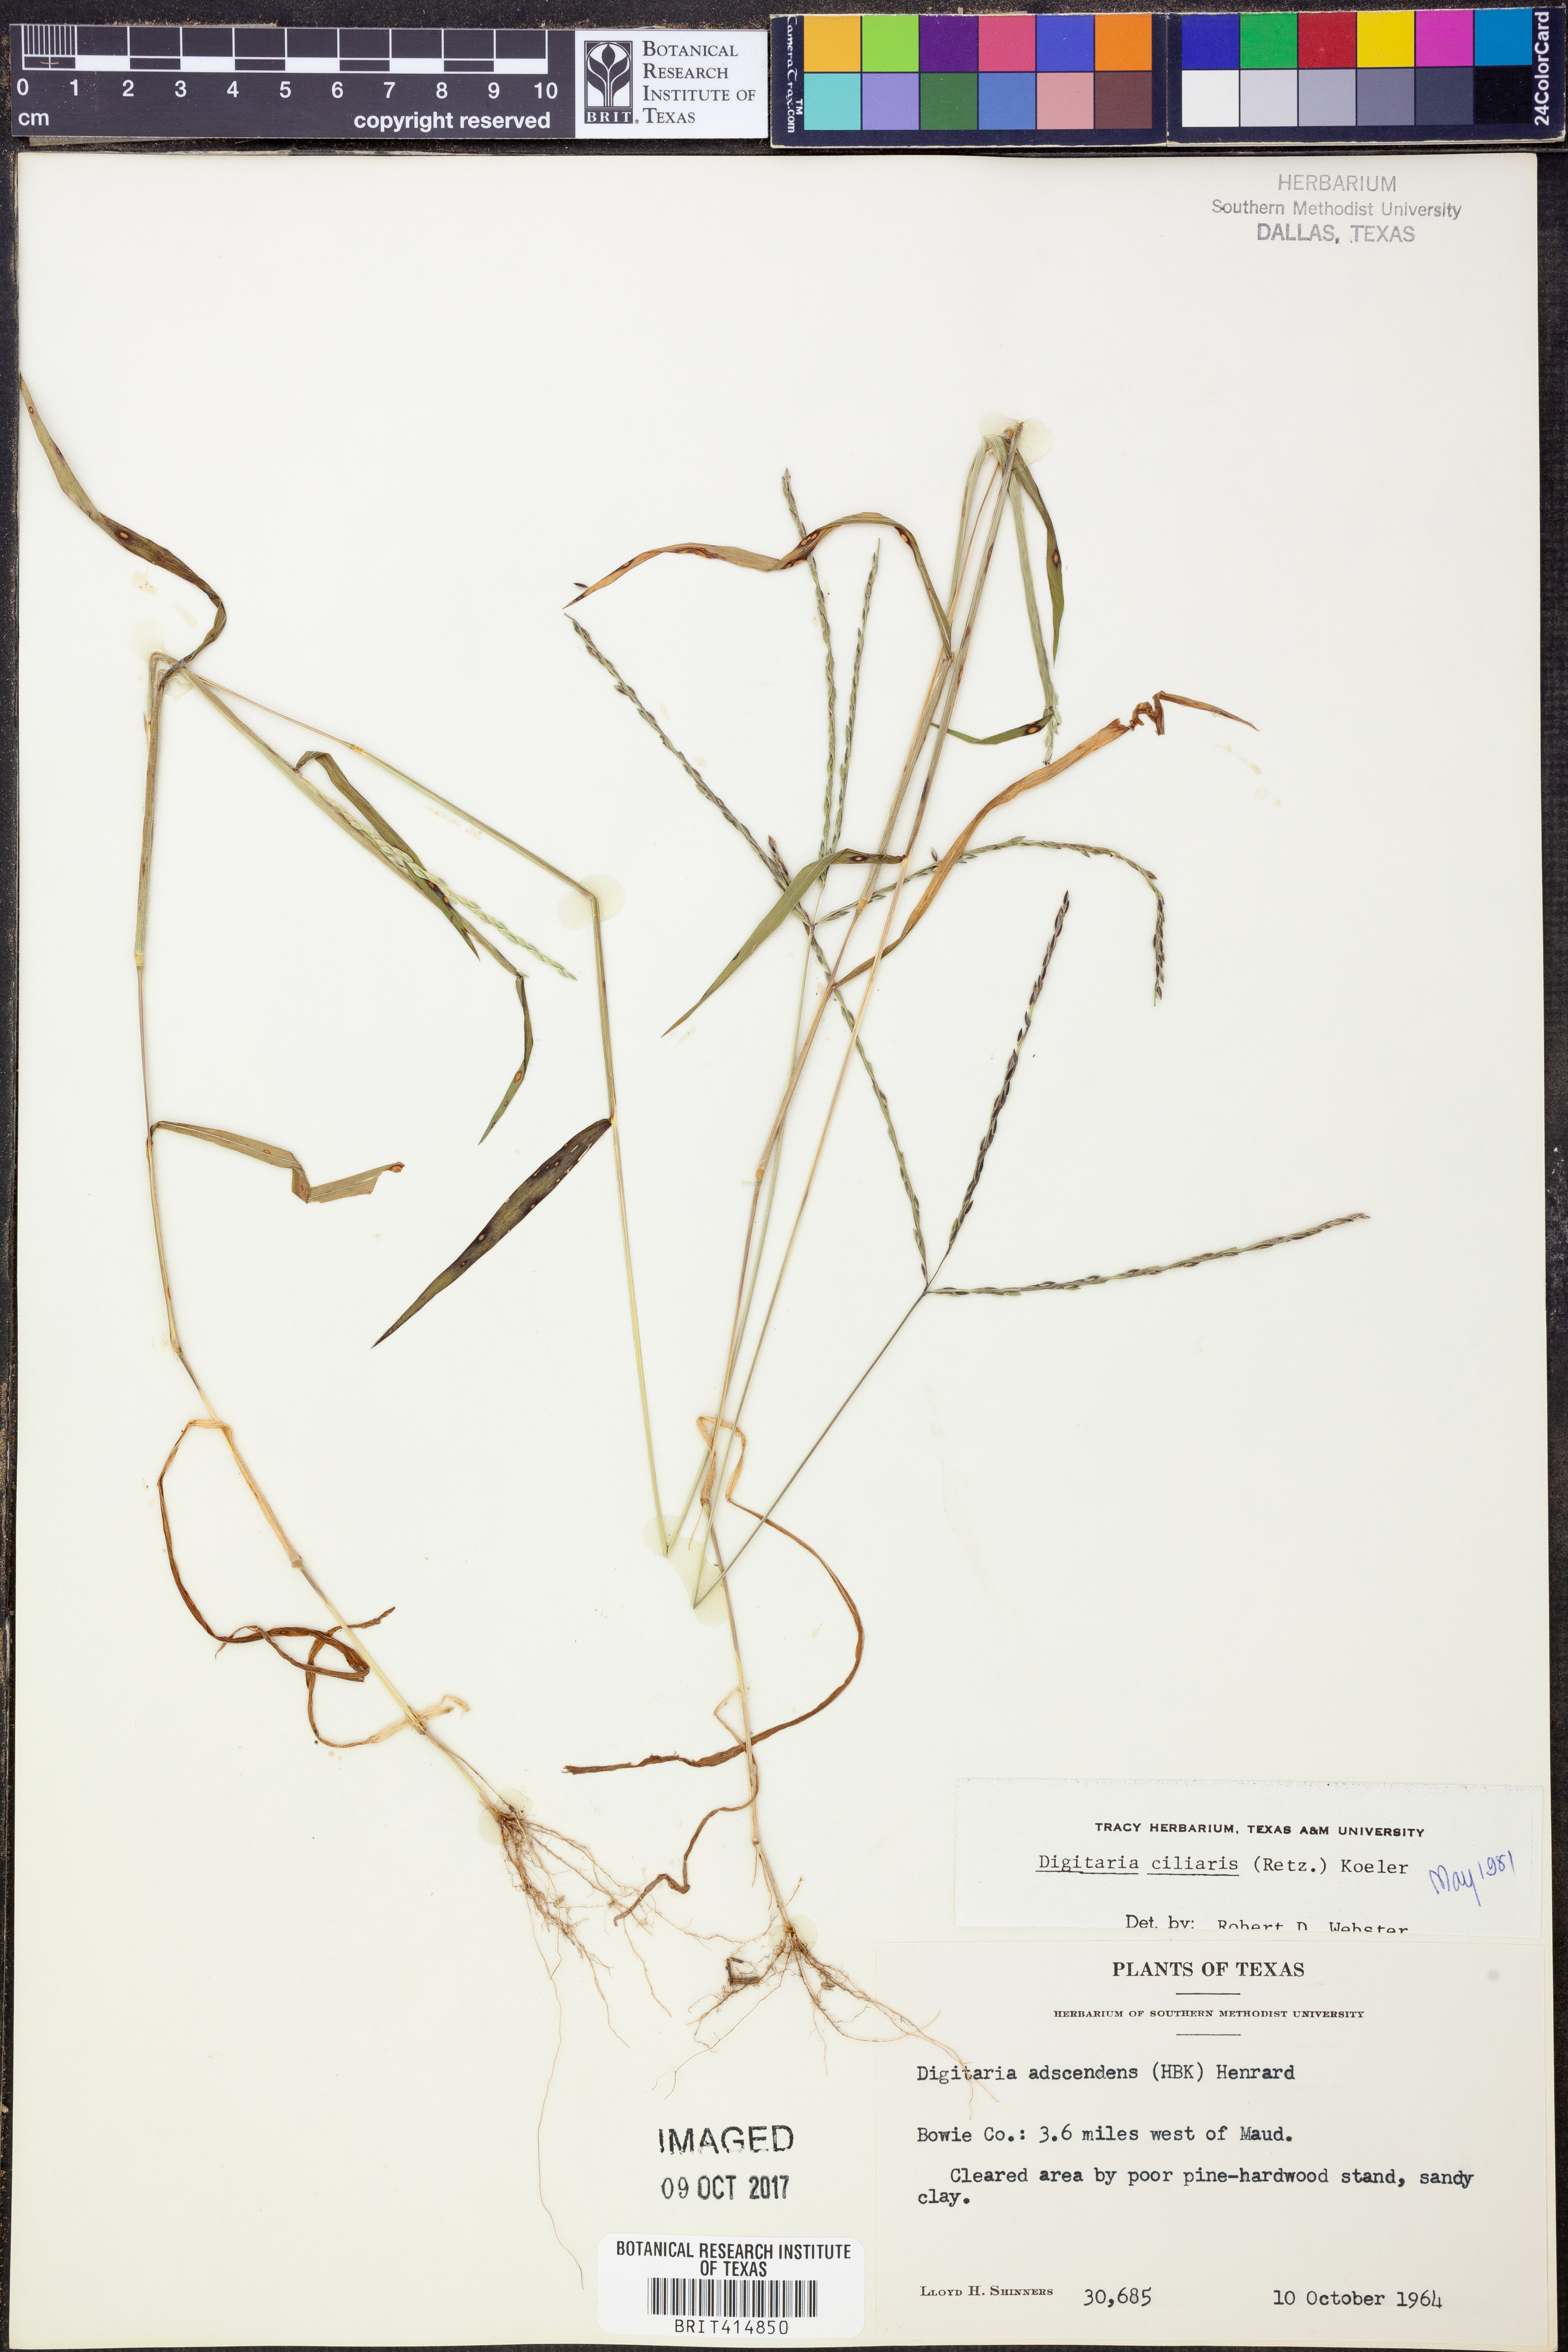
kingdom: Plantae
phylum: Tracheophyta
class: Liliopsida
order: Poales
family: Poaceae
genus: Digitaria
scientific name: Digitaria ciliaris
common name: Tropical finger-grass
